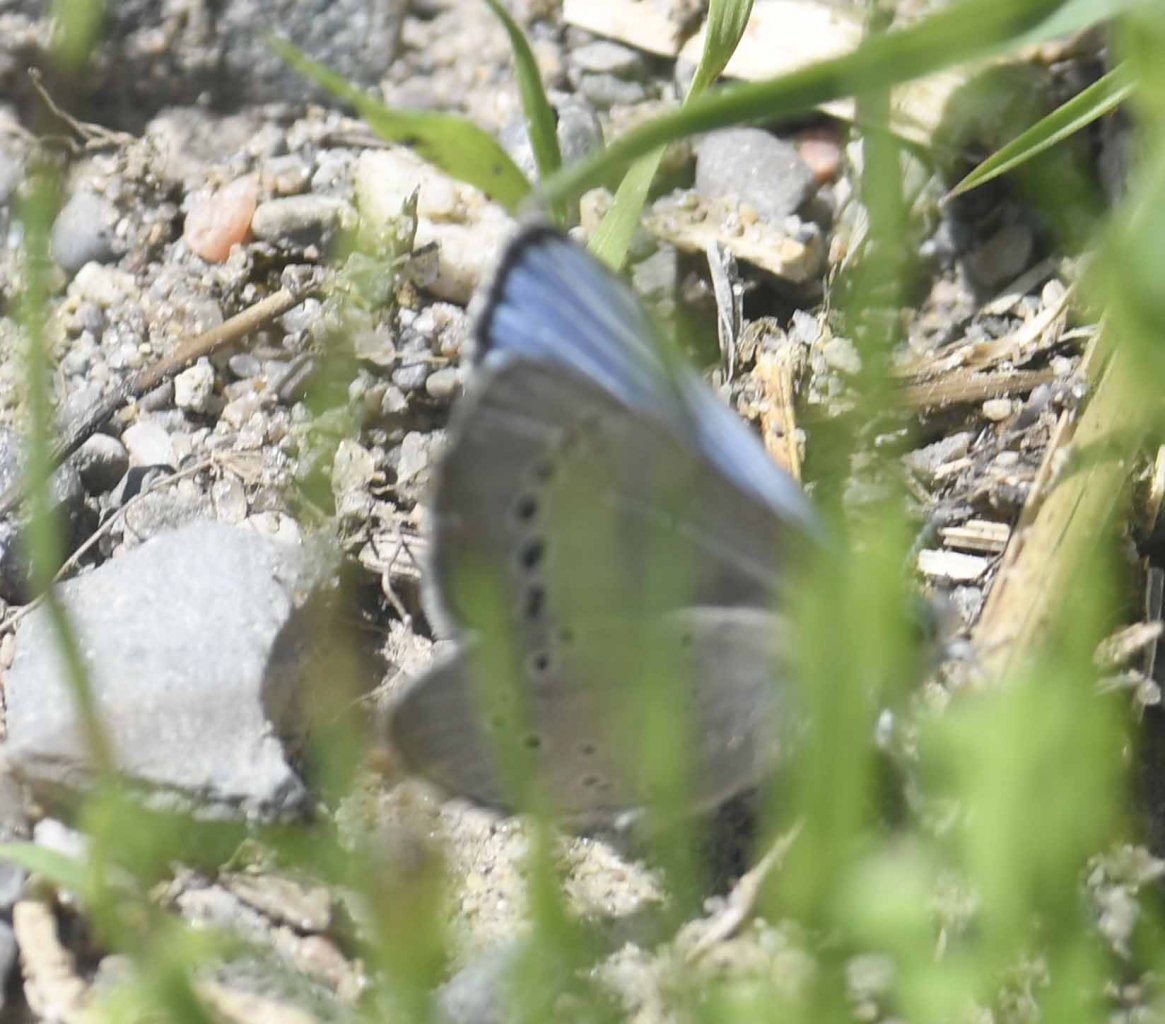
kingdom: Animalia
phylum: Arthropoda
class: Insecta
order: Lepidoptera
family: Lycaenidae
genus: Glaucopsyche
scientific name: Glaucopsyche lygdamus
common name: Silvery Blue
